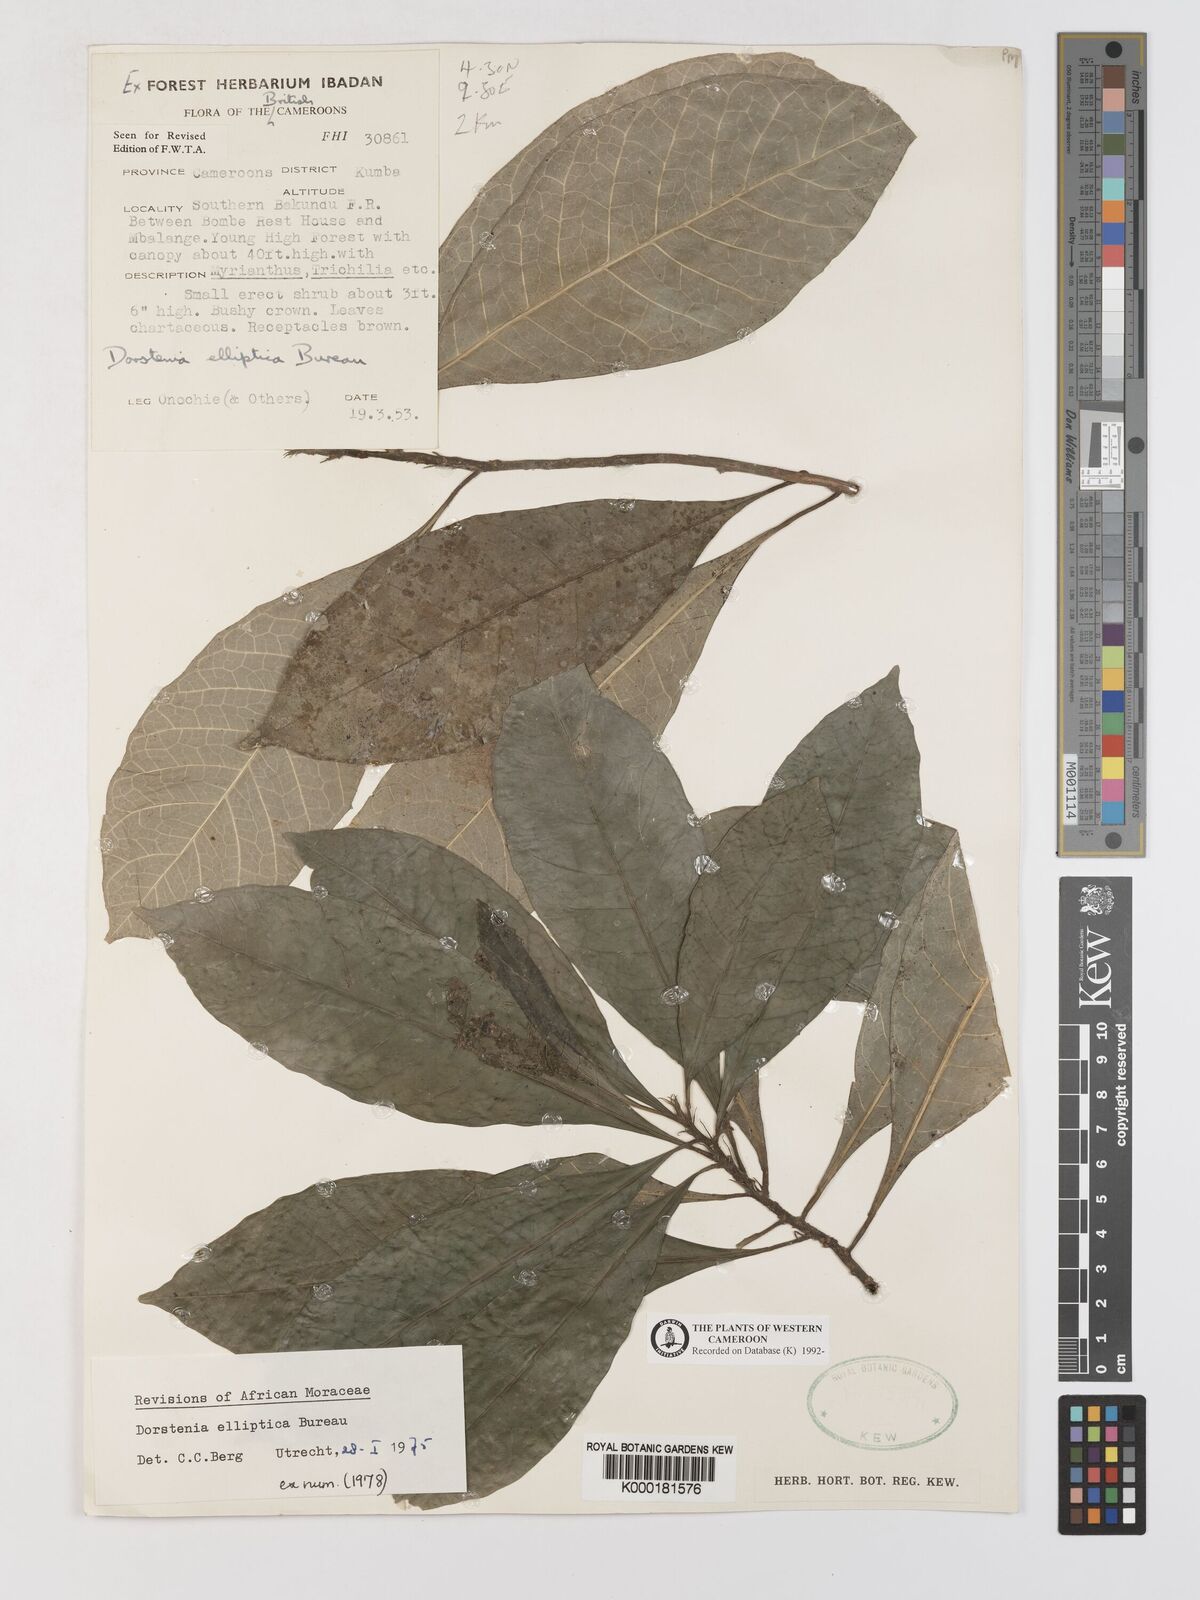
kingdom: Plantae
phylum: Tracheophyta
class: Magnoliopsida
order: Rosales
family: Moraceae
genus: Dorstenia
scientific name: Dorstenia elliptica
